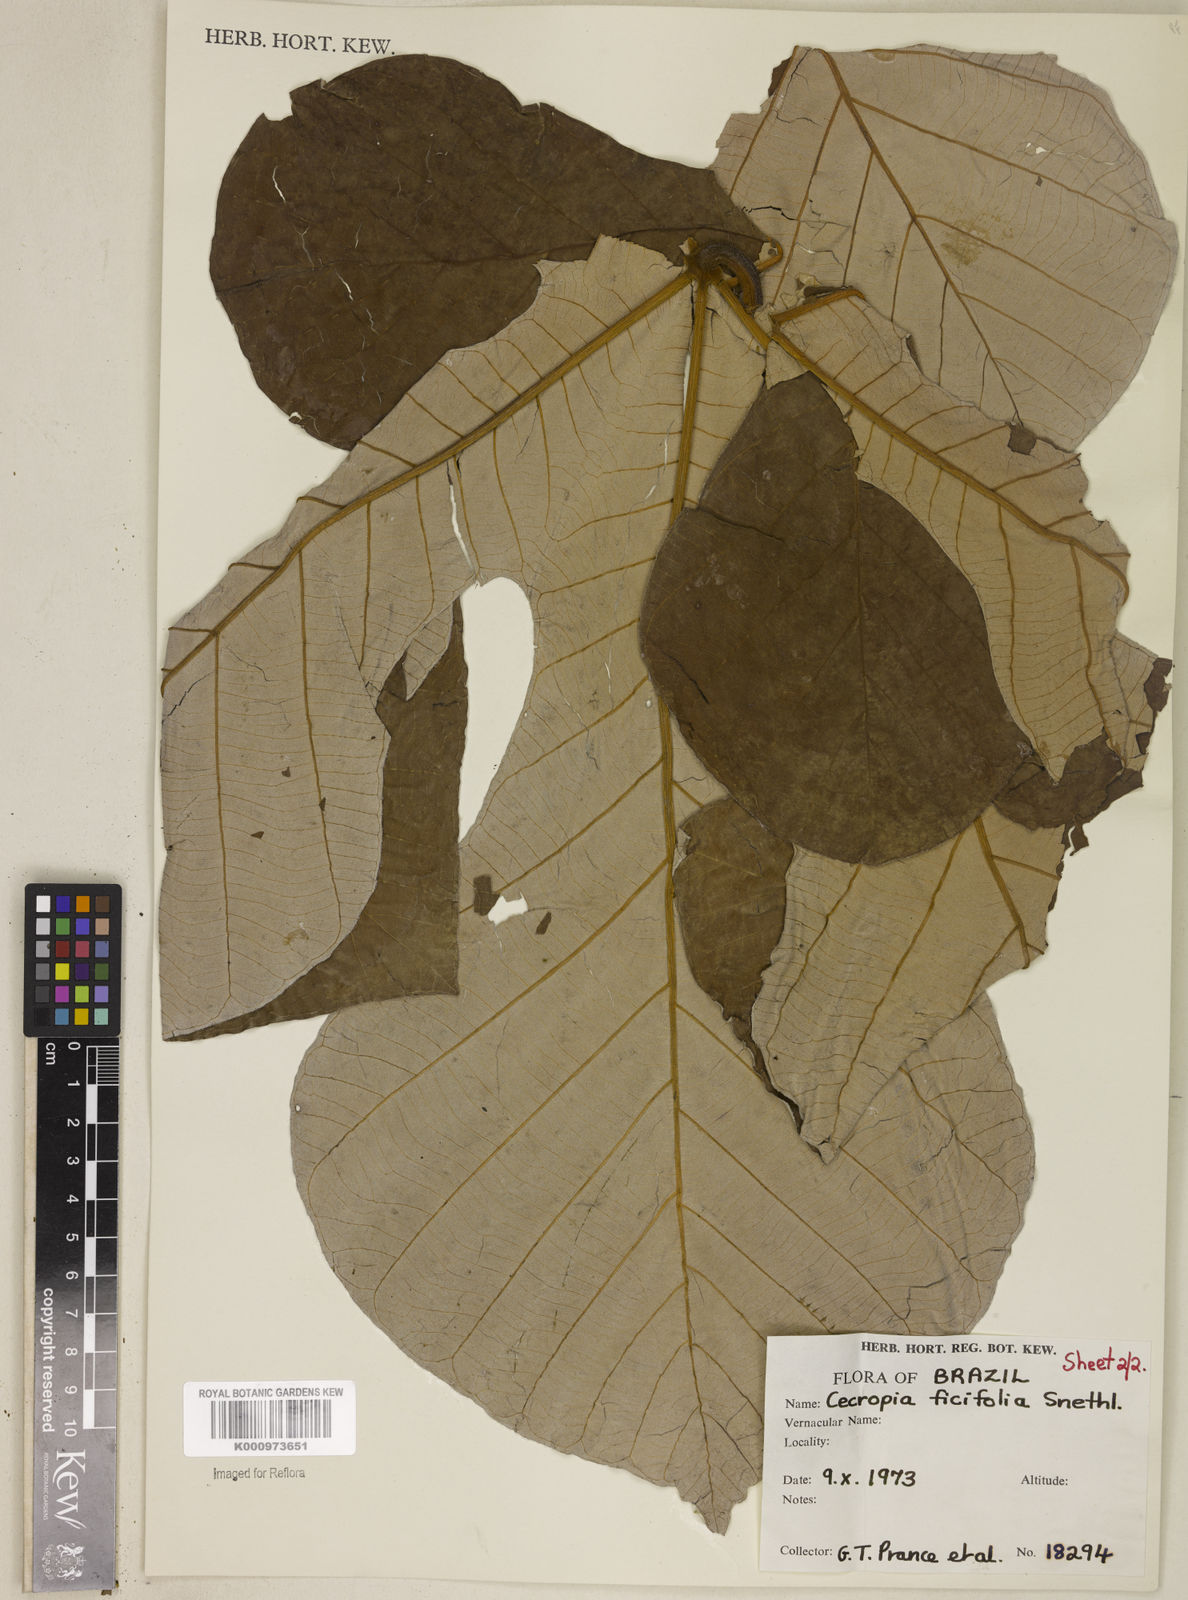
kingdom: Plantae
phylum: Tracheophyta
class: Magnoliopsida
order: Rosales
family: Urticaceae
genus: Cecropia
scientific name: Cecropia ficifolia
